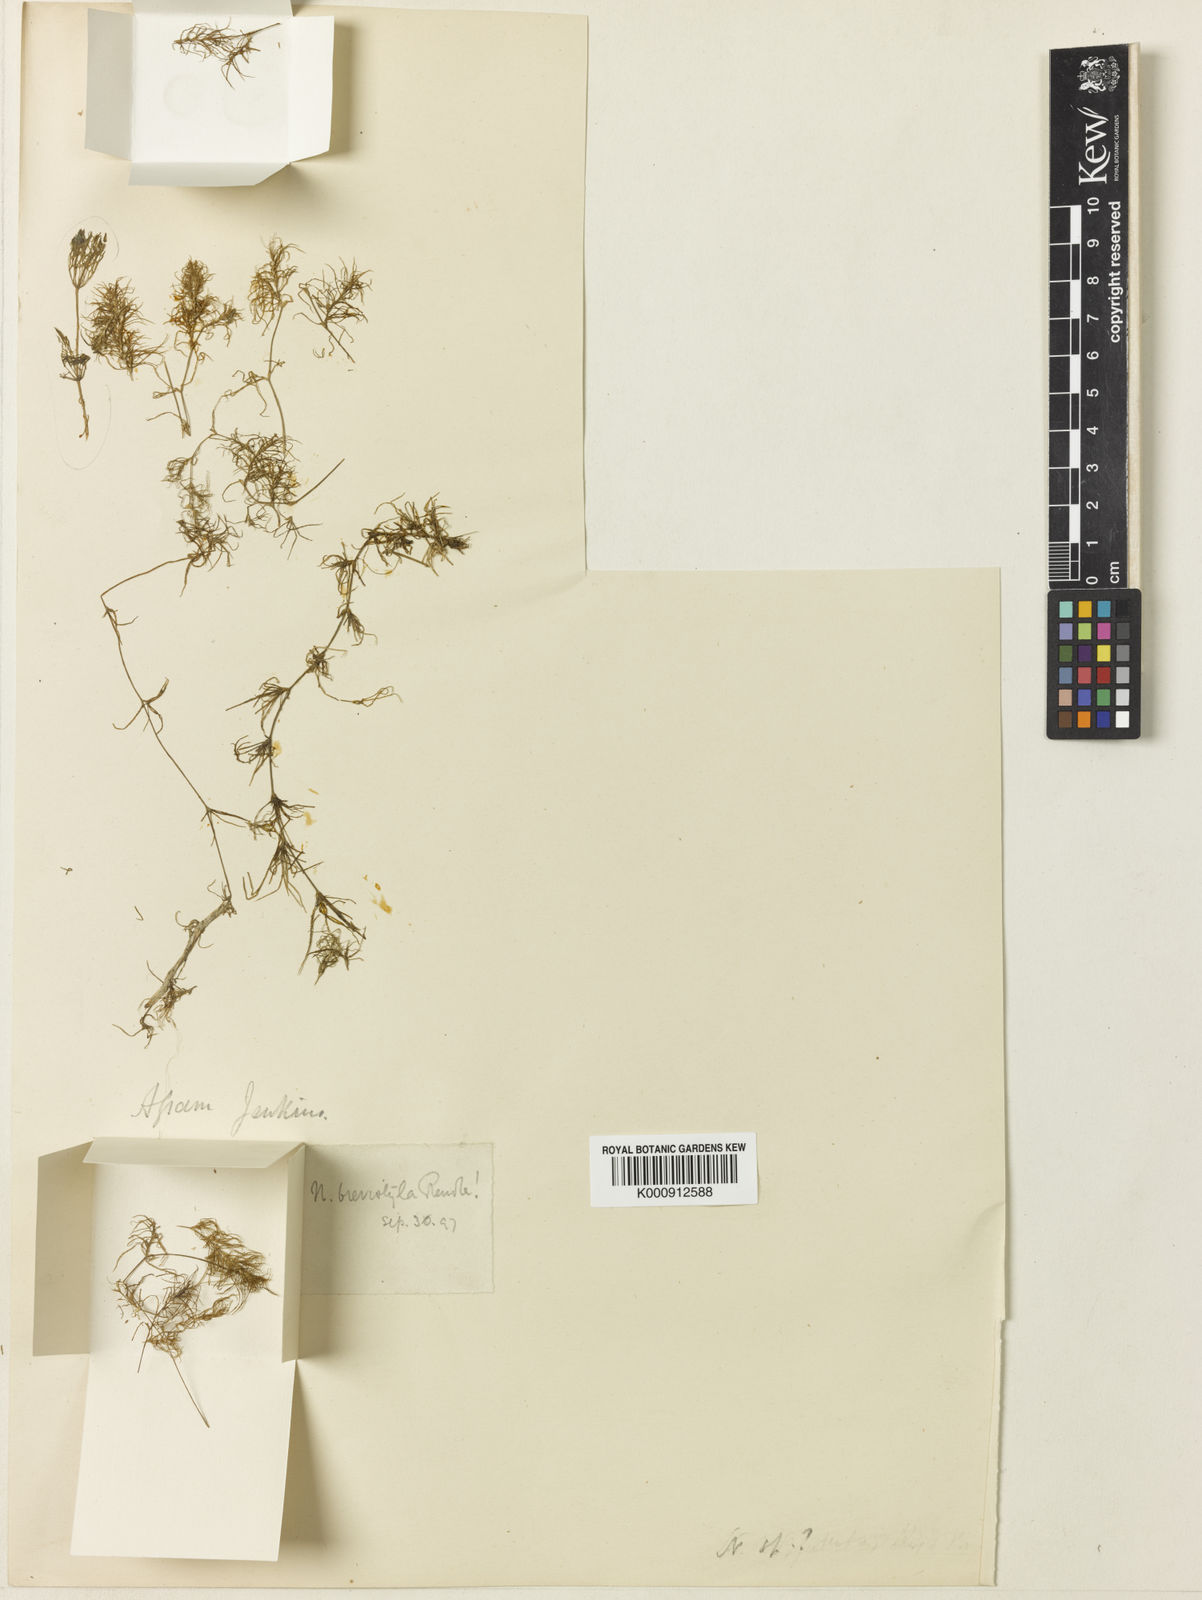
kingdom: Plantae
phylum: Tracheophyta
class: Liliopsida
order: Alismatales
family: Hydrocharitaceae
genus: Najas
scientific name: Najas brevistyla
